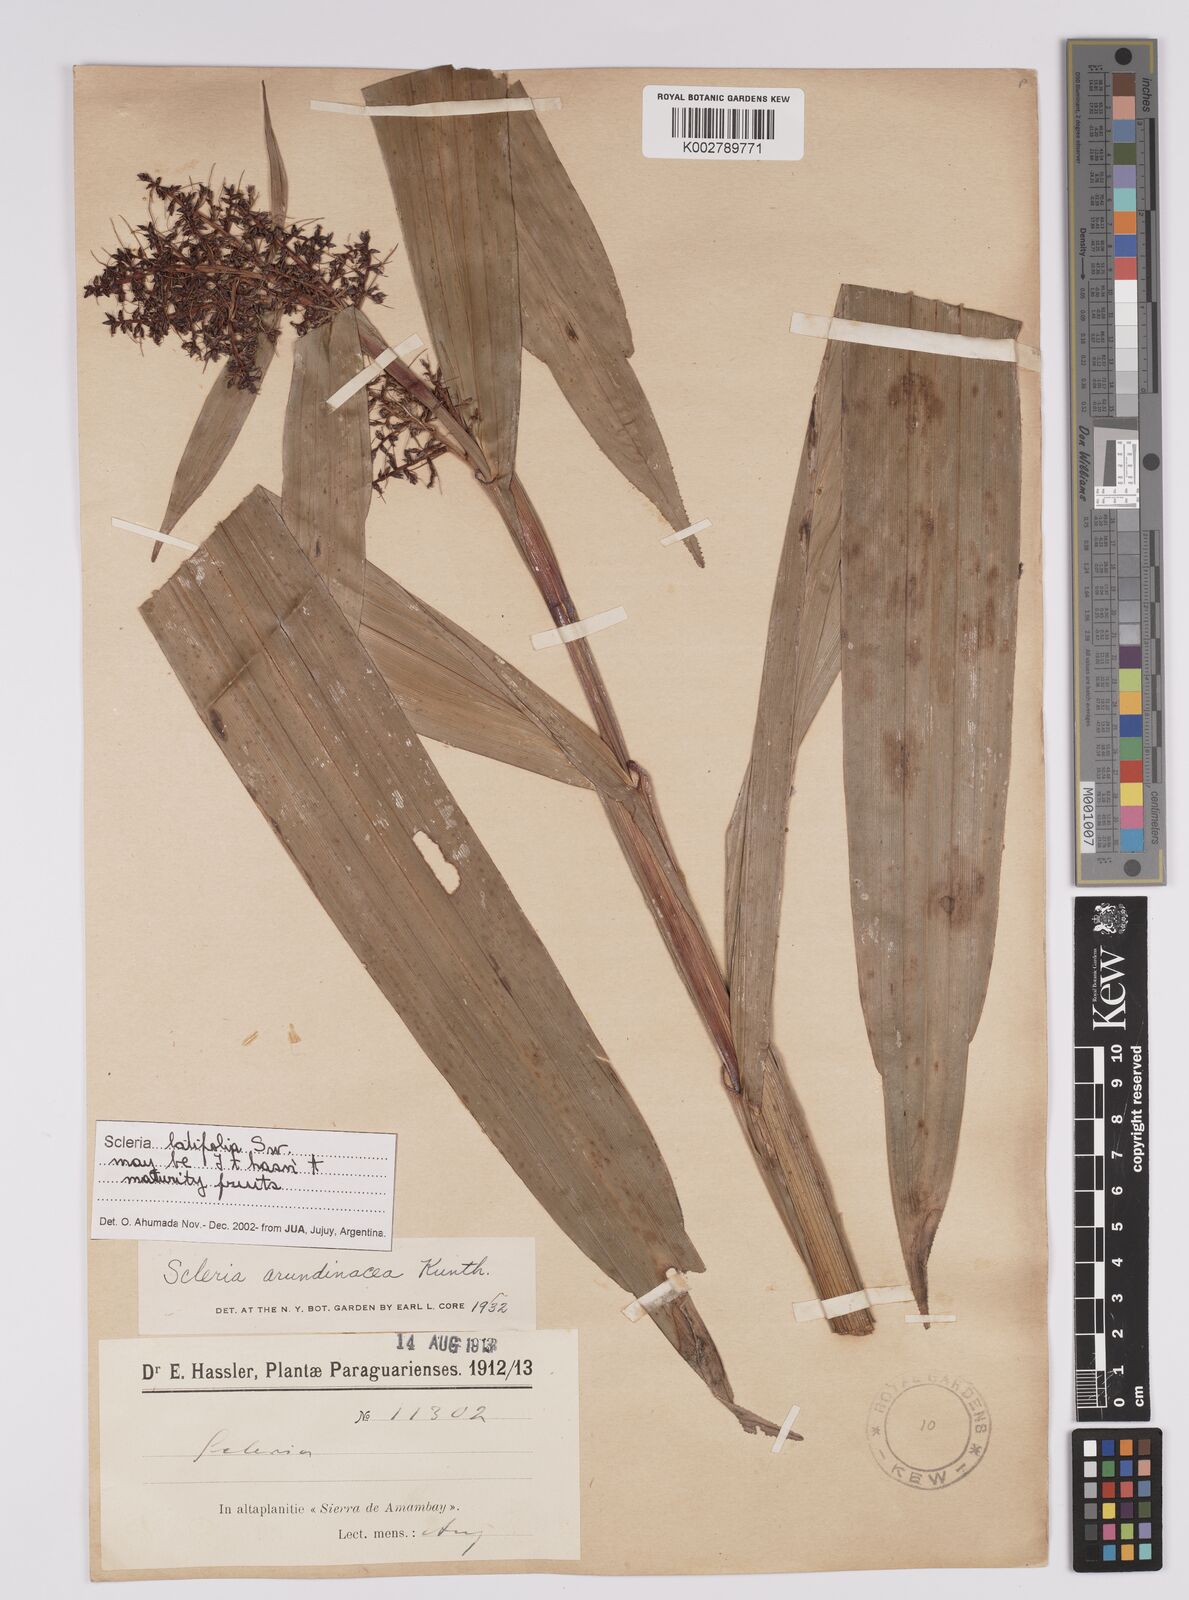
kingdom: Plantae
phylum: Tracheophyta
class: Liliopsida
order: Poales
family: Cyperaceae
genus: Scleria
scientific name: Scleria latifolia
